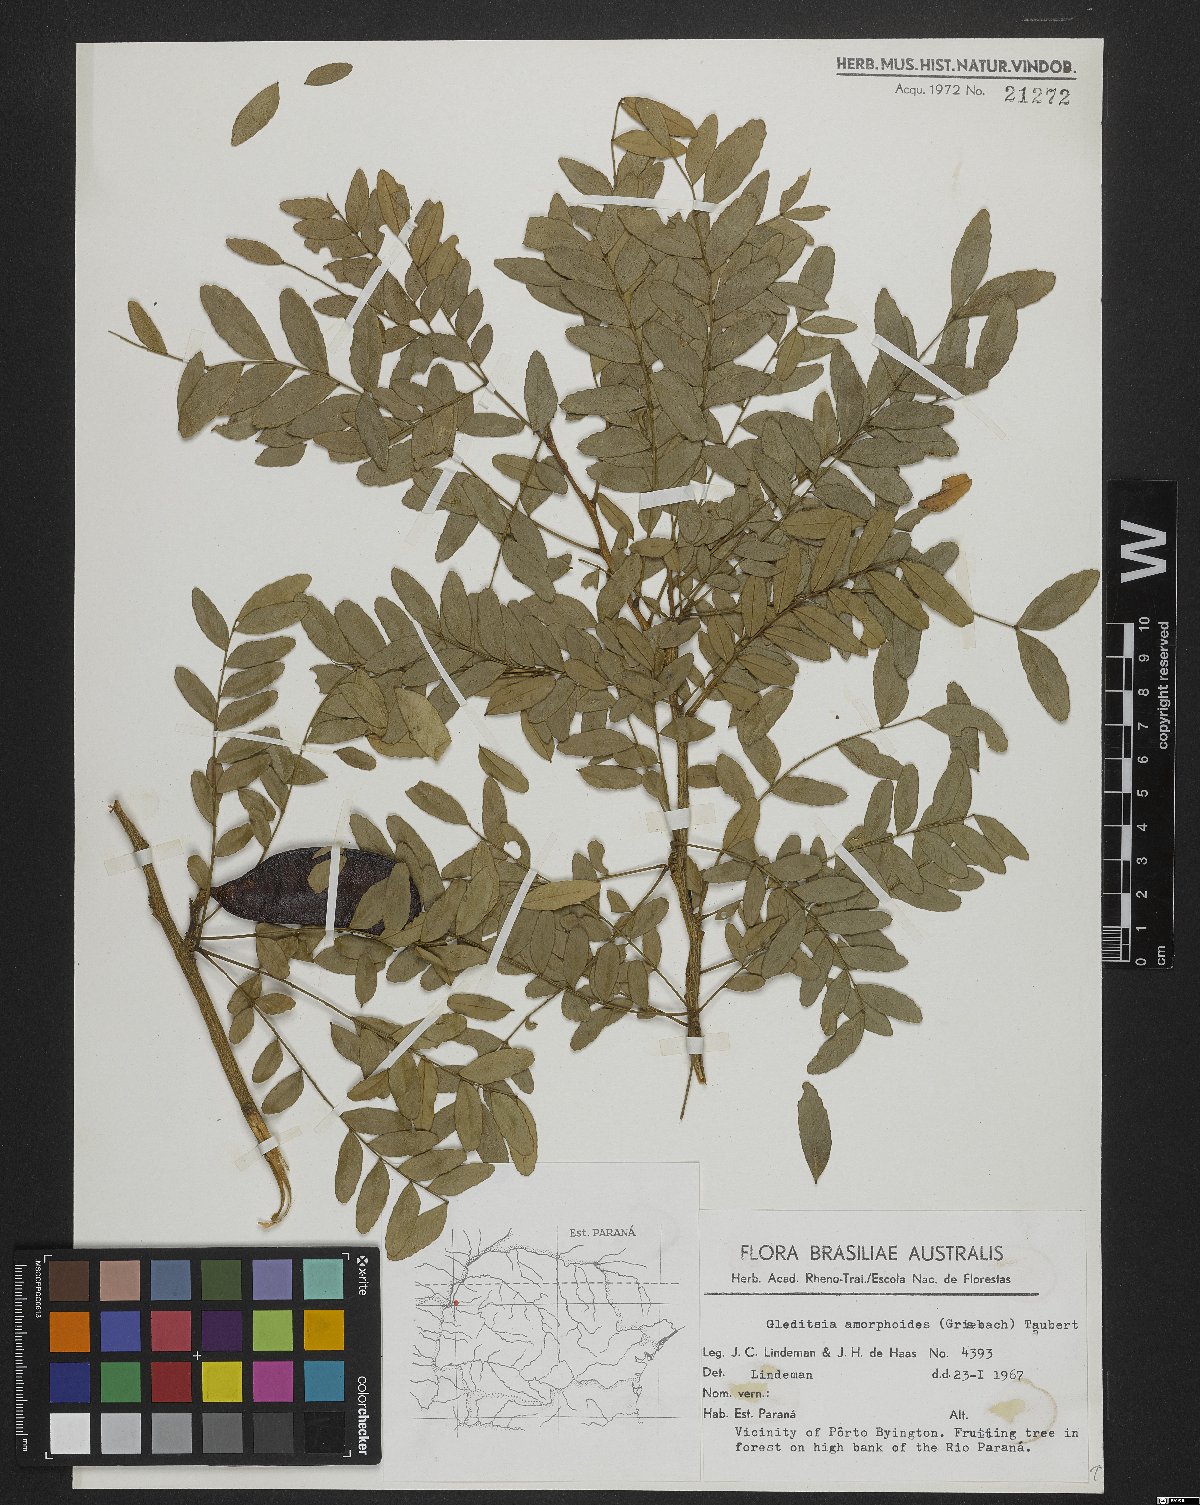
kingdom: Plantae
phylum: Tracheophyta
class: Magnoliopsida
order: Fabales
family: Fabaceae
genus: Gleditsia
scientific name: Gleditsia amorphoides
